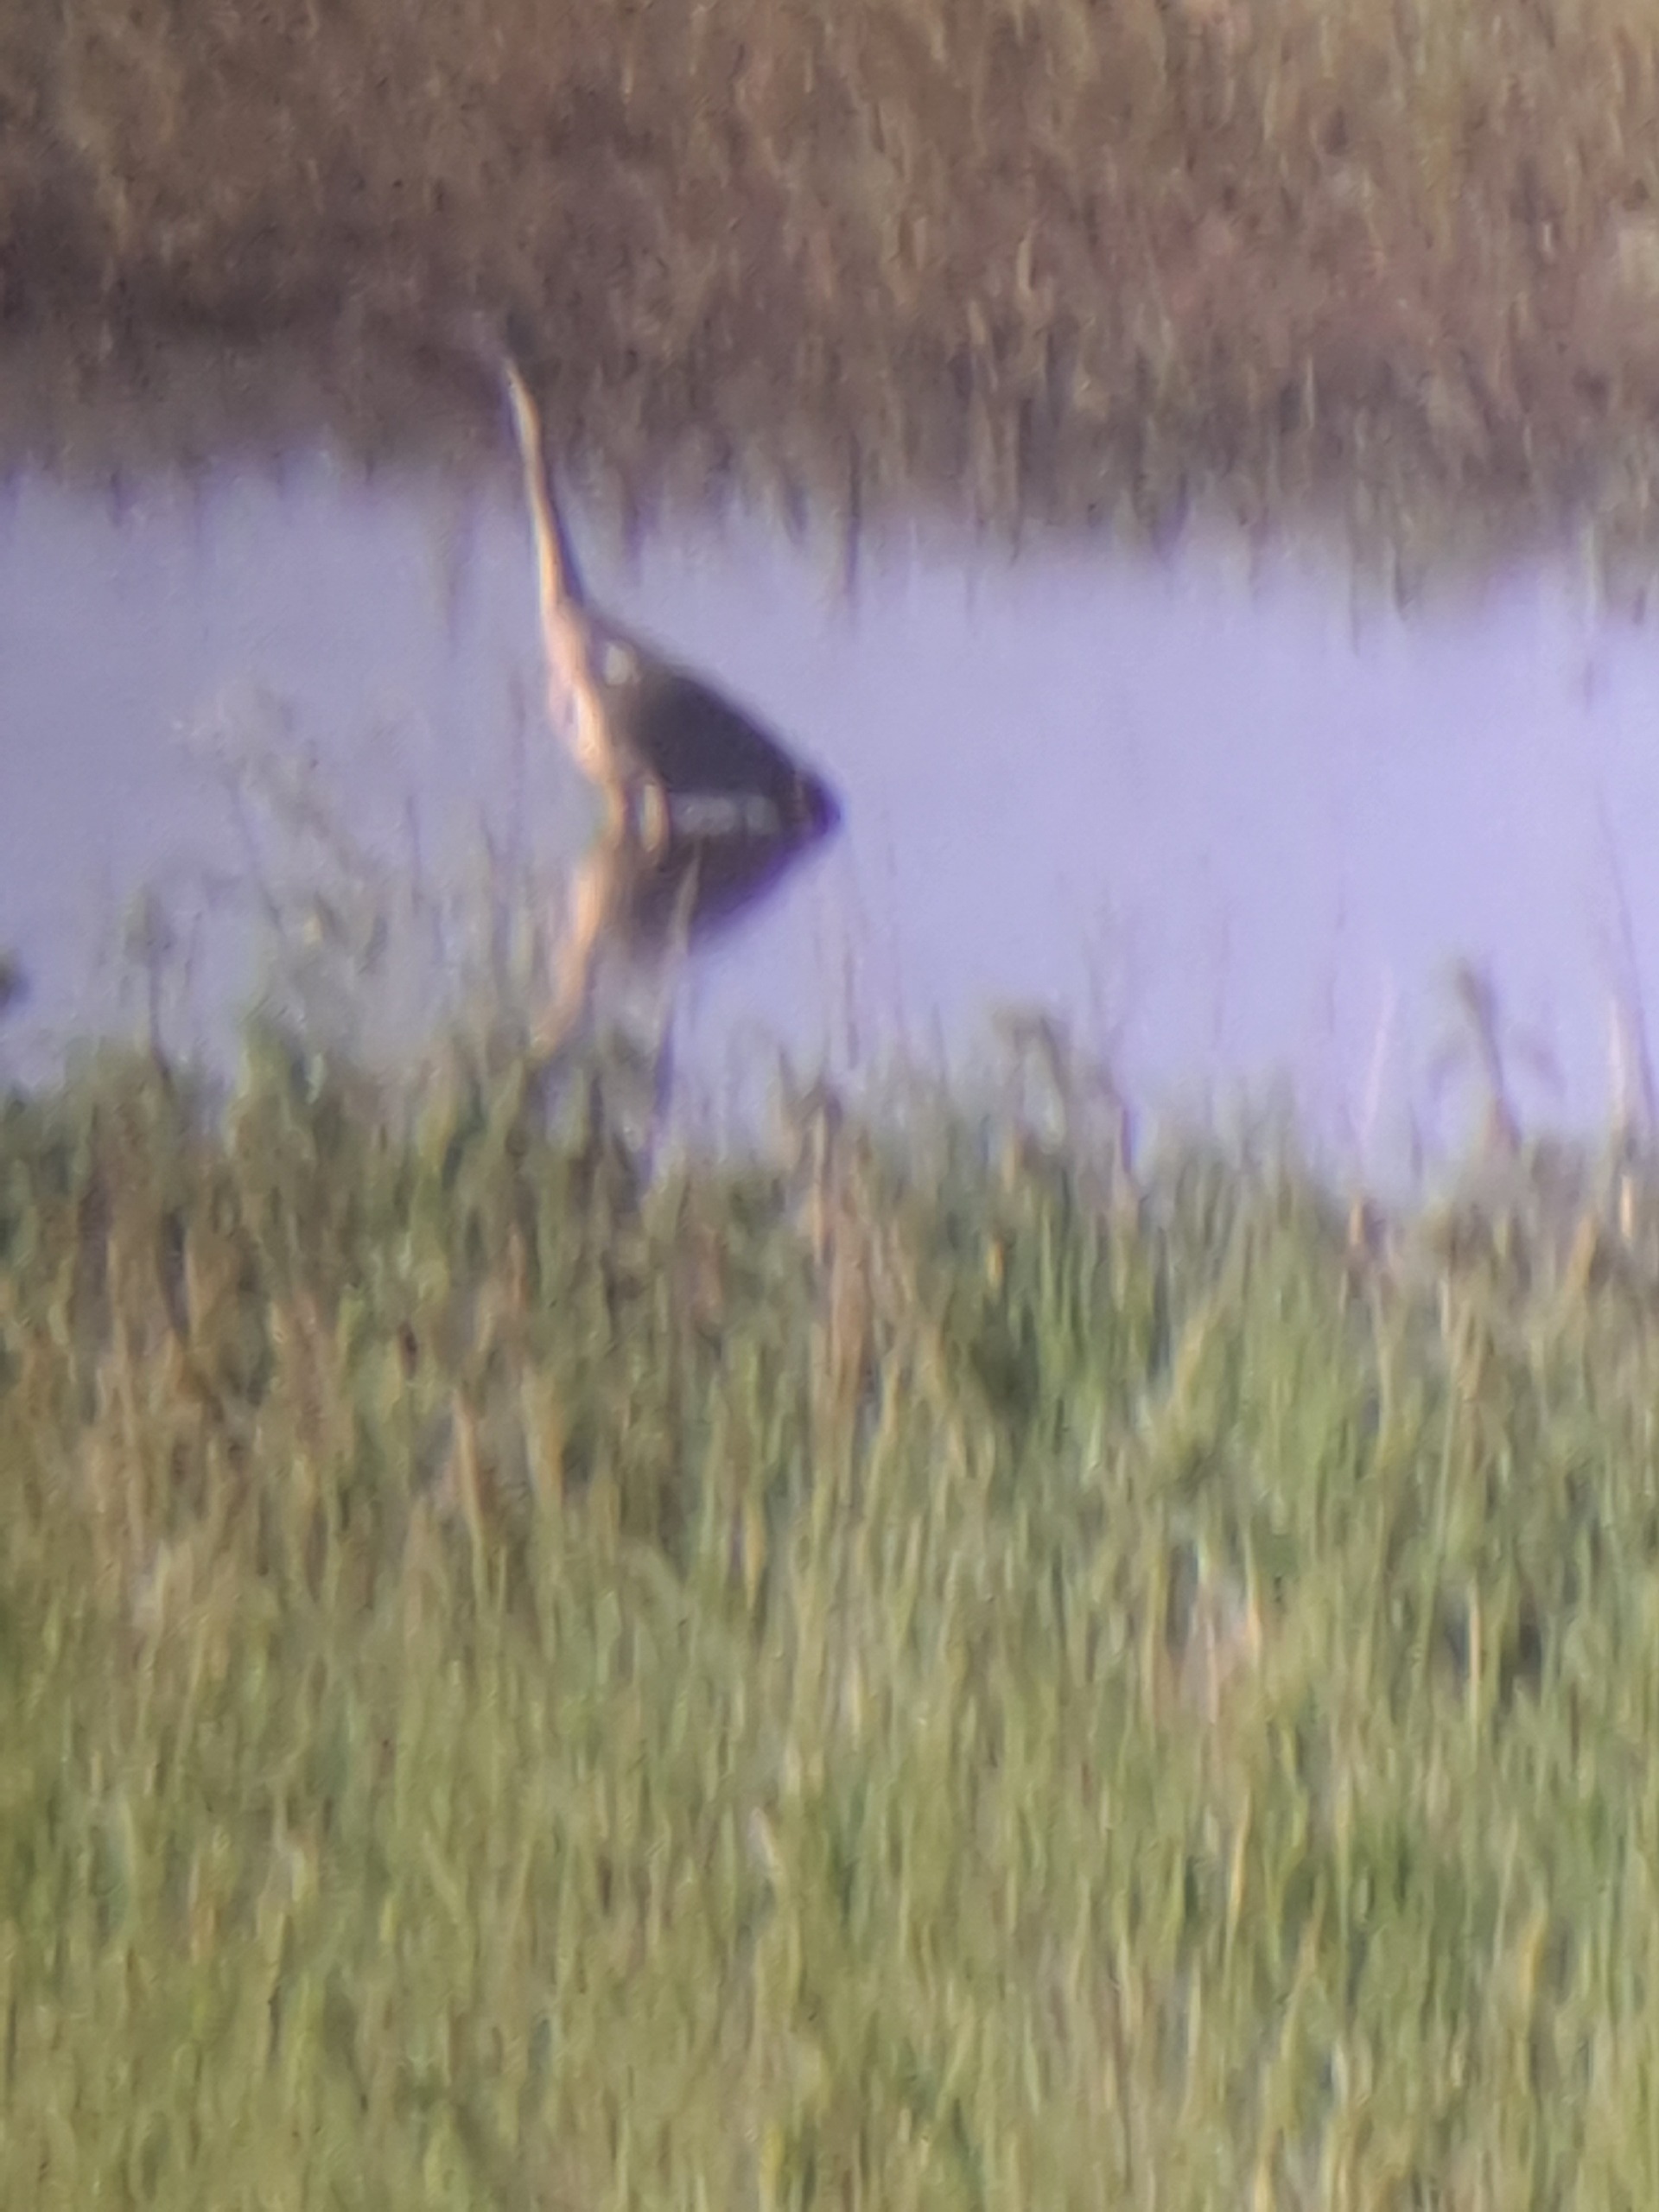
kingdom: Animalia
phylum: Chordata
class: Aves
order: Pelecaniformes
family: Ardeidae
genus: Ardea
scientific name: Ardea cinerea
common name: Fiskehejre
